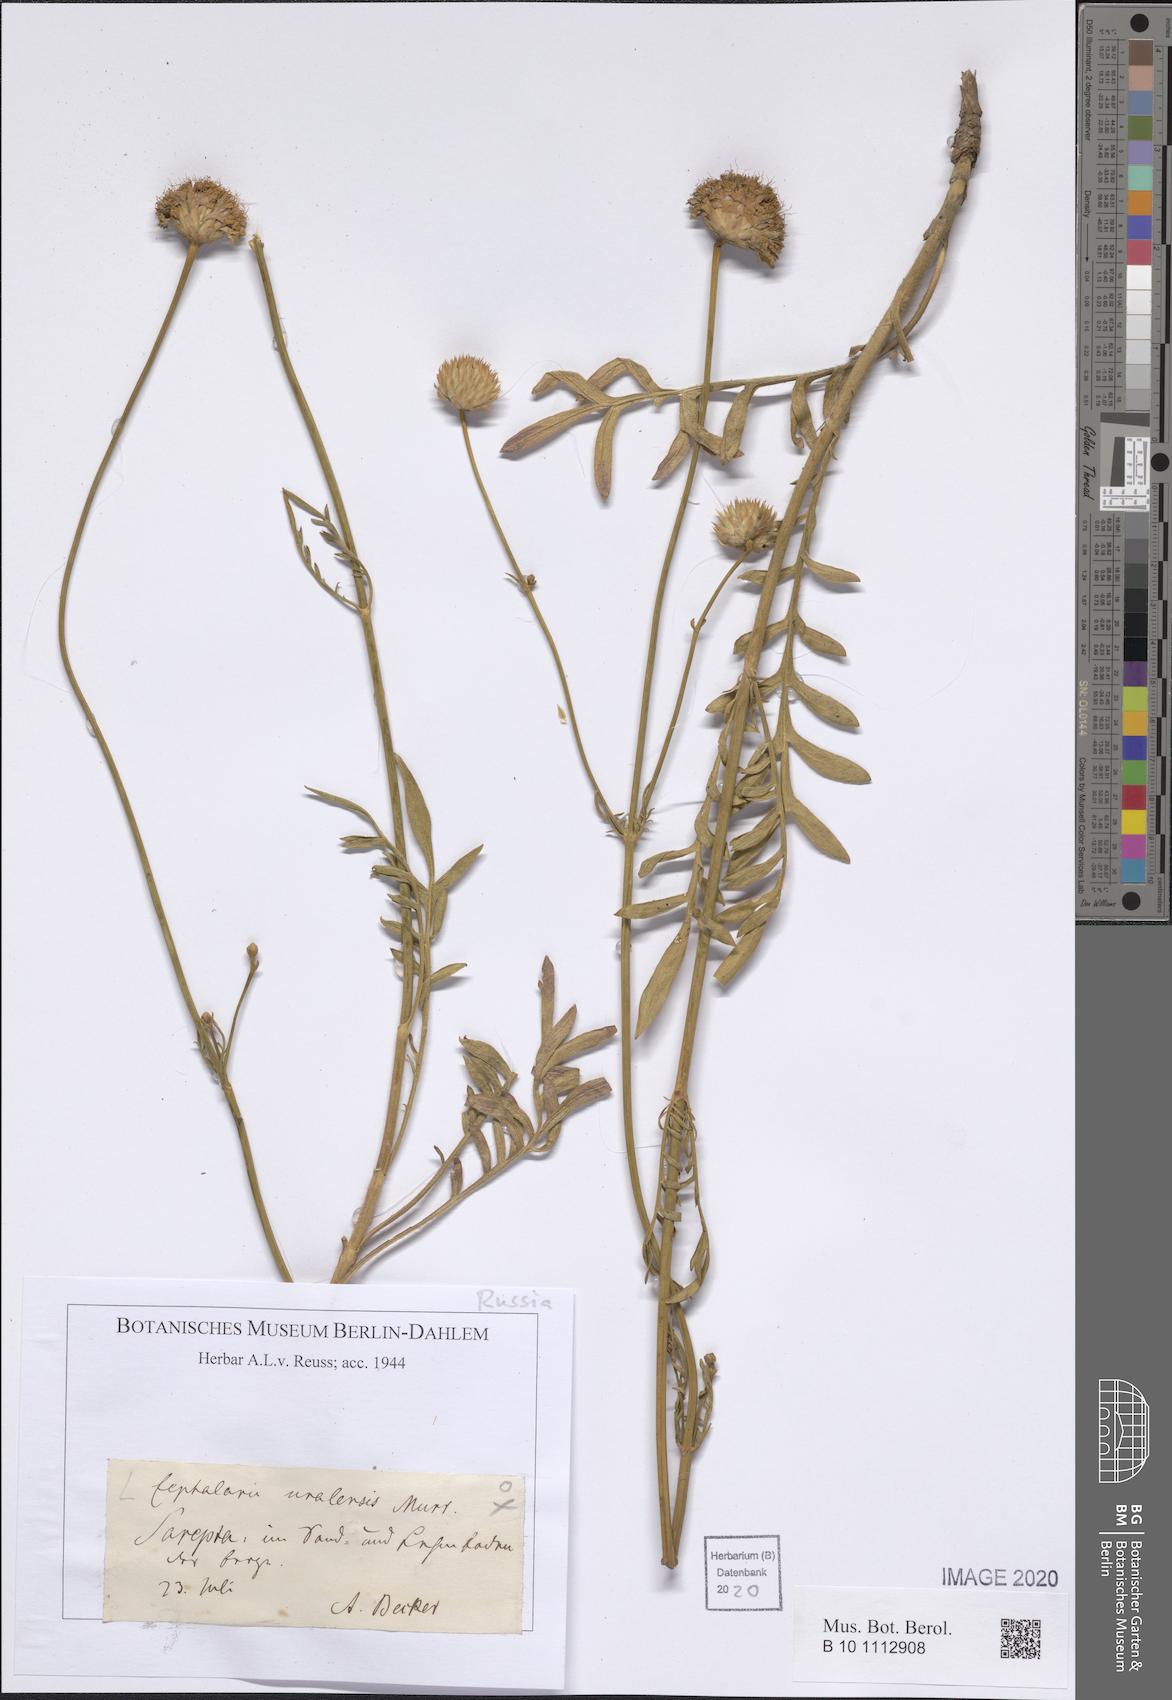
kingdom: Plantae
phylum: Tracheophyta
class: Magnoliopsida
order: Dipsacales
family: Caprifoliaceae
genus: Cephalaria
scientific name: Cephalaria uralensis
